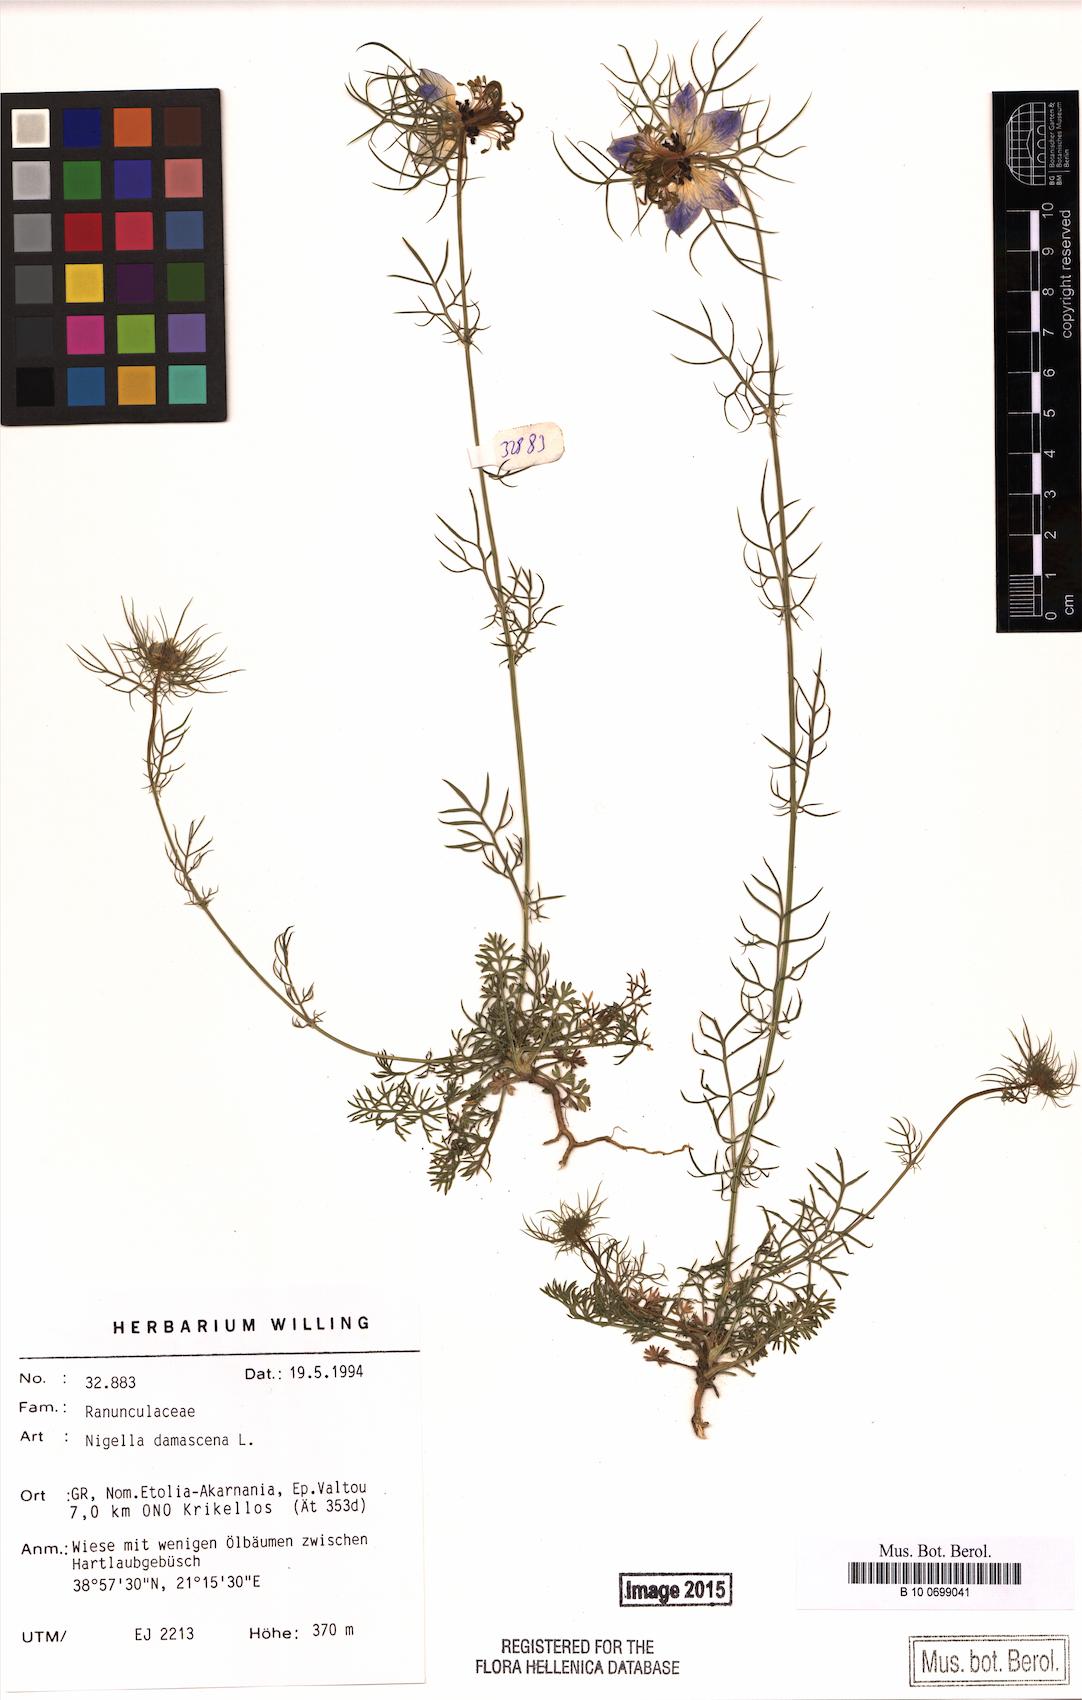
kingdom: Plantae
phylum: Tracheophyta
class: Magnoliopsida
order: Ranunculales
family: Ranunculaceae
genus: Nigella
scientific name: Nigella damascena
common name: Love-in-a-mist
